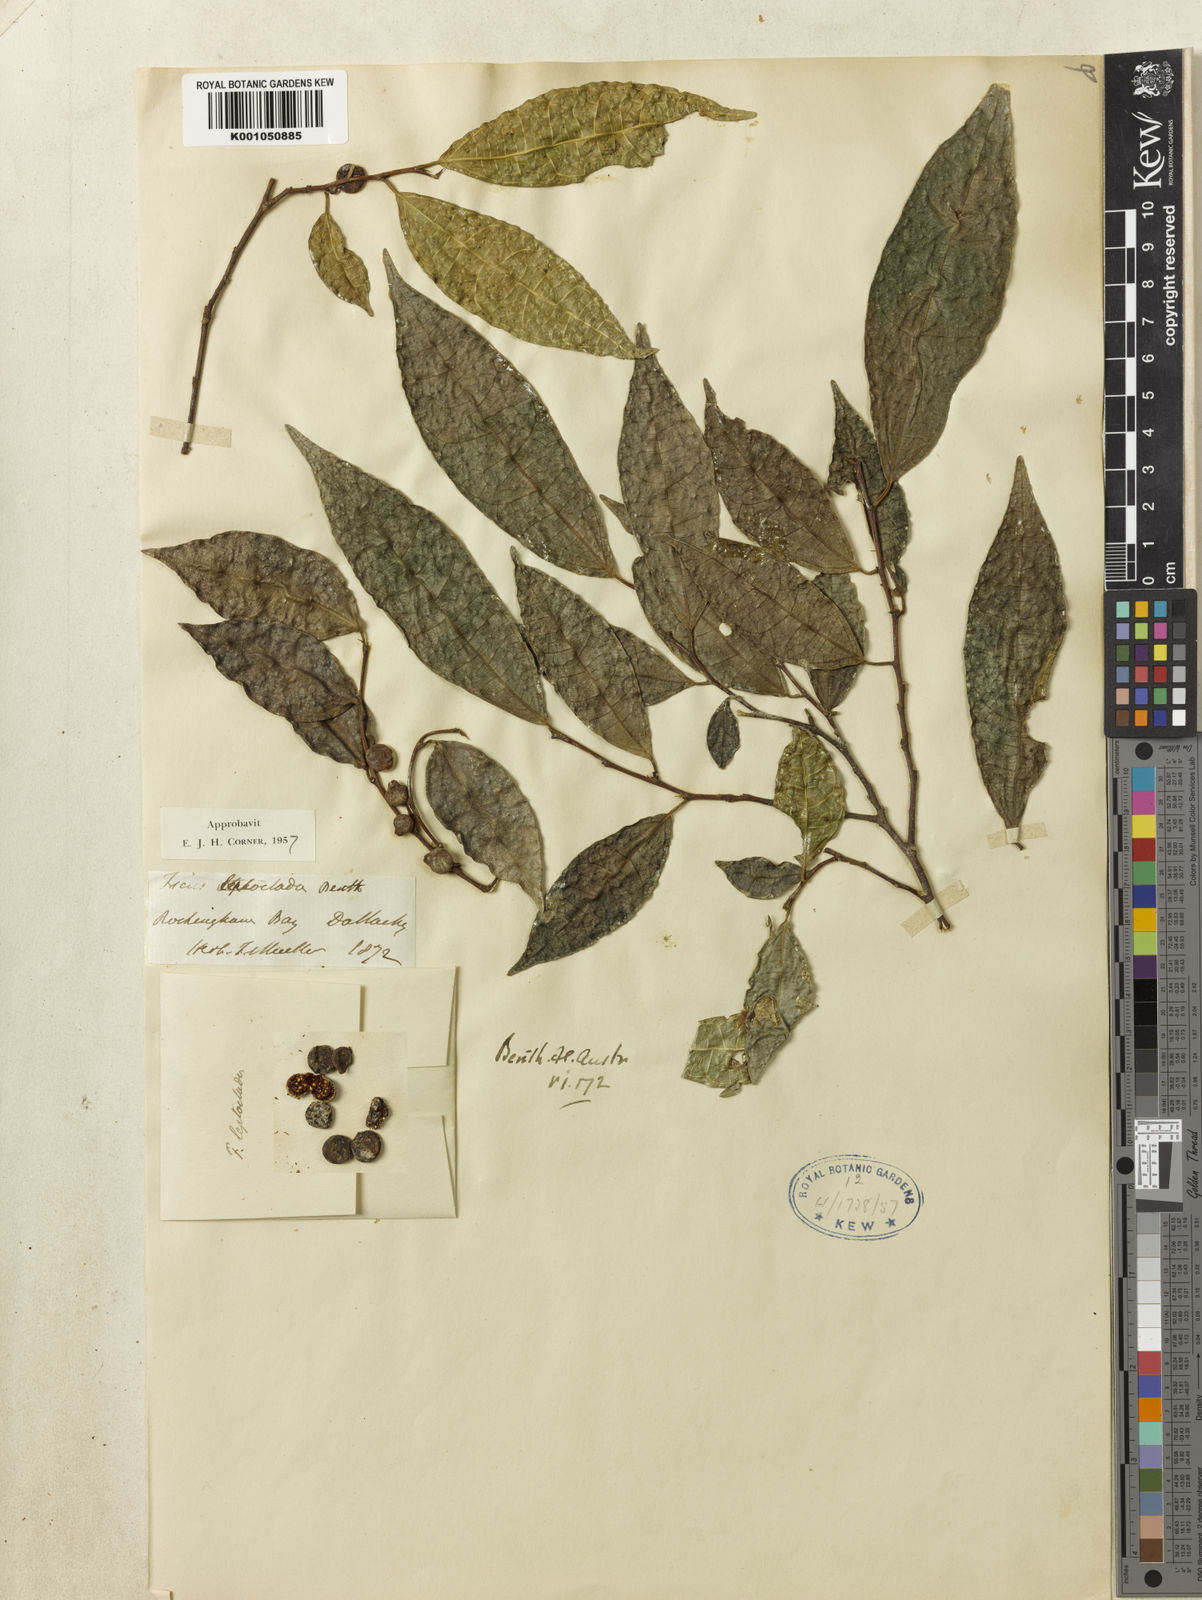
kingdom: Plantae
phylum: Tracheophyta
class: Magnoliopsida
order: Rosales
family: Moraceae
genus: Ficus
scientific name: Ficus leptoclada
